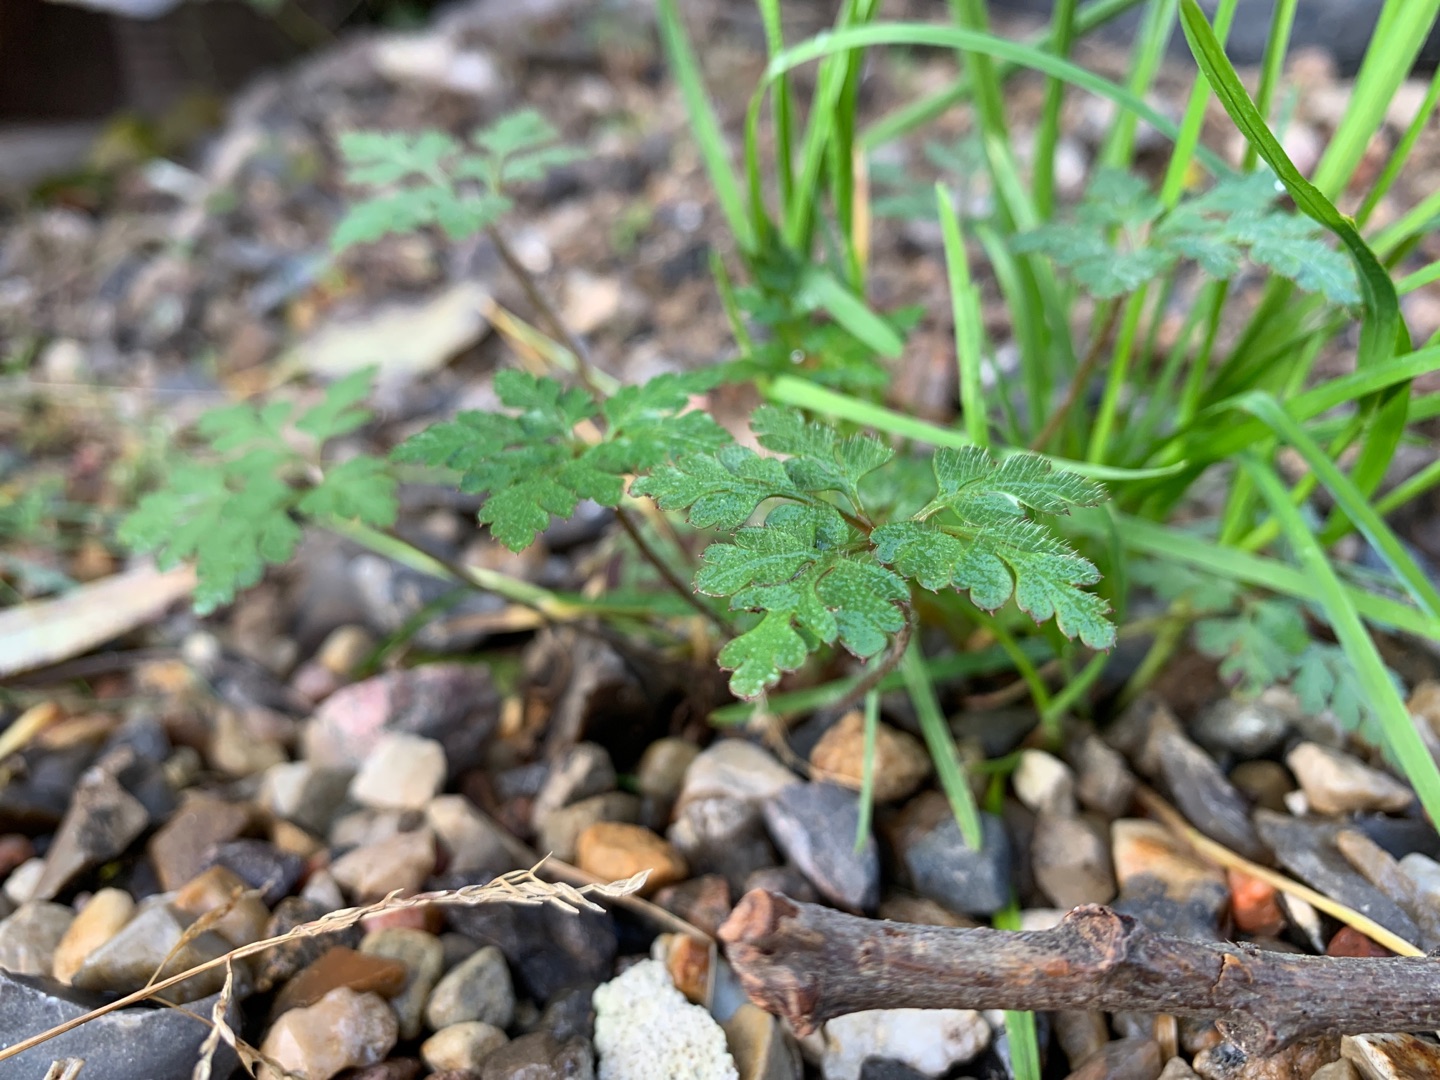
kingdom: Plantae
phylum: Tracheophyta
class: Magnoliopsida
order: Geraniales
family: Geraniaceae
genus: Geranium
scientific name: Geranium robertianum
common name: Stinkende storkenæb
